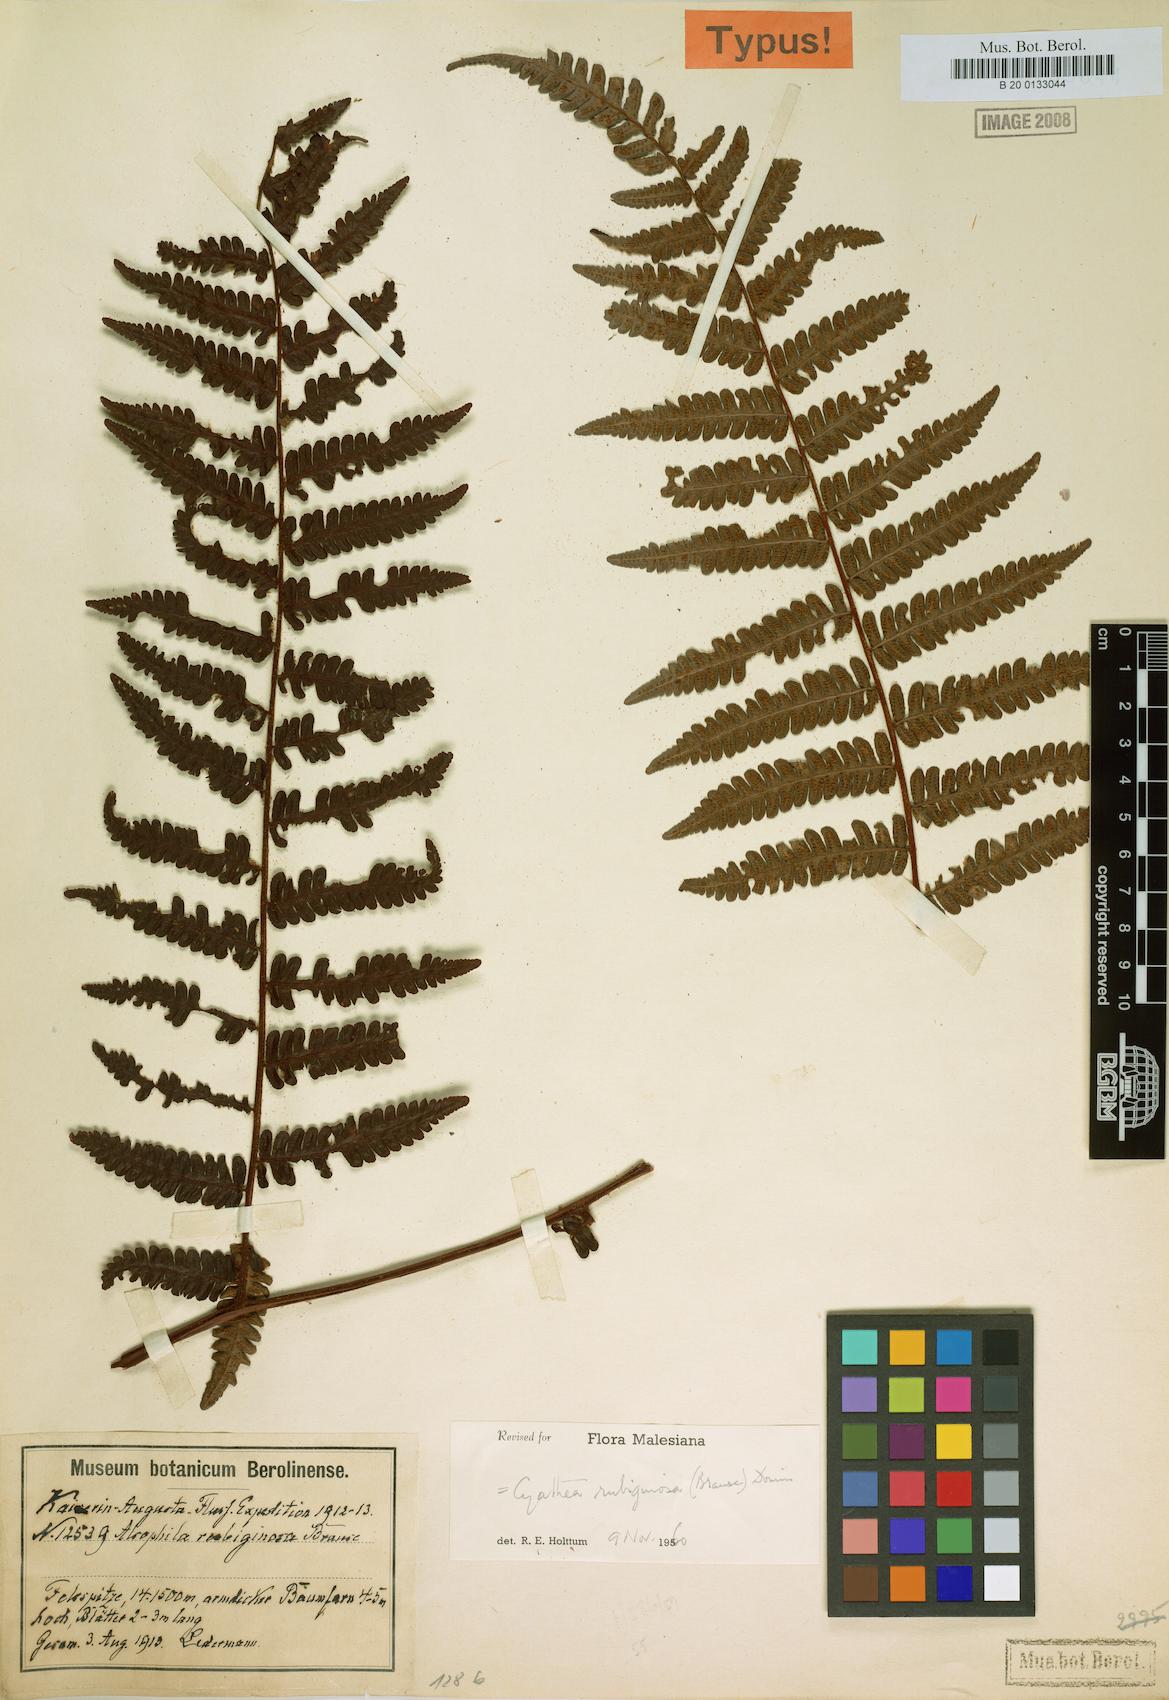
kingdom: Plantae
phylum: Tracheophyta
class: Polypodiopsida
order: Cyatheales
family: Cyatheaceae
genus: Alsophila
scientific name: Alsophila rubiginosa
